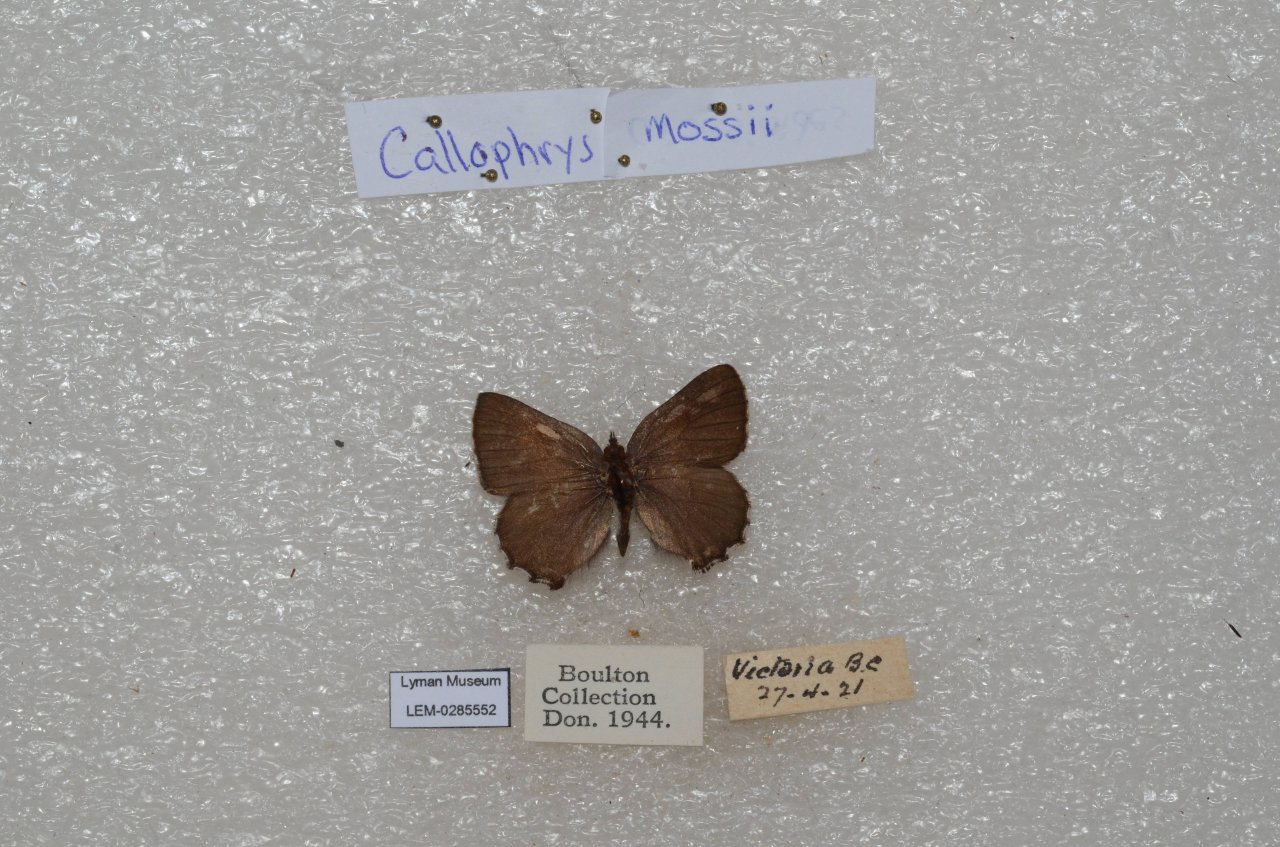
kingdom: Animalia
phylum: Arthropoda
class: Insecta
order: Lepidoptera
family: Lycaenidae
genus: Callophrys
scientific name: Callophrys mossii
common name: Moss' Elfin
